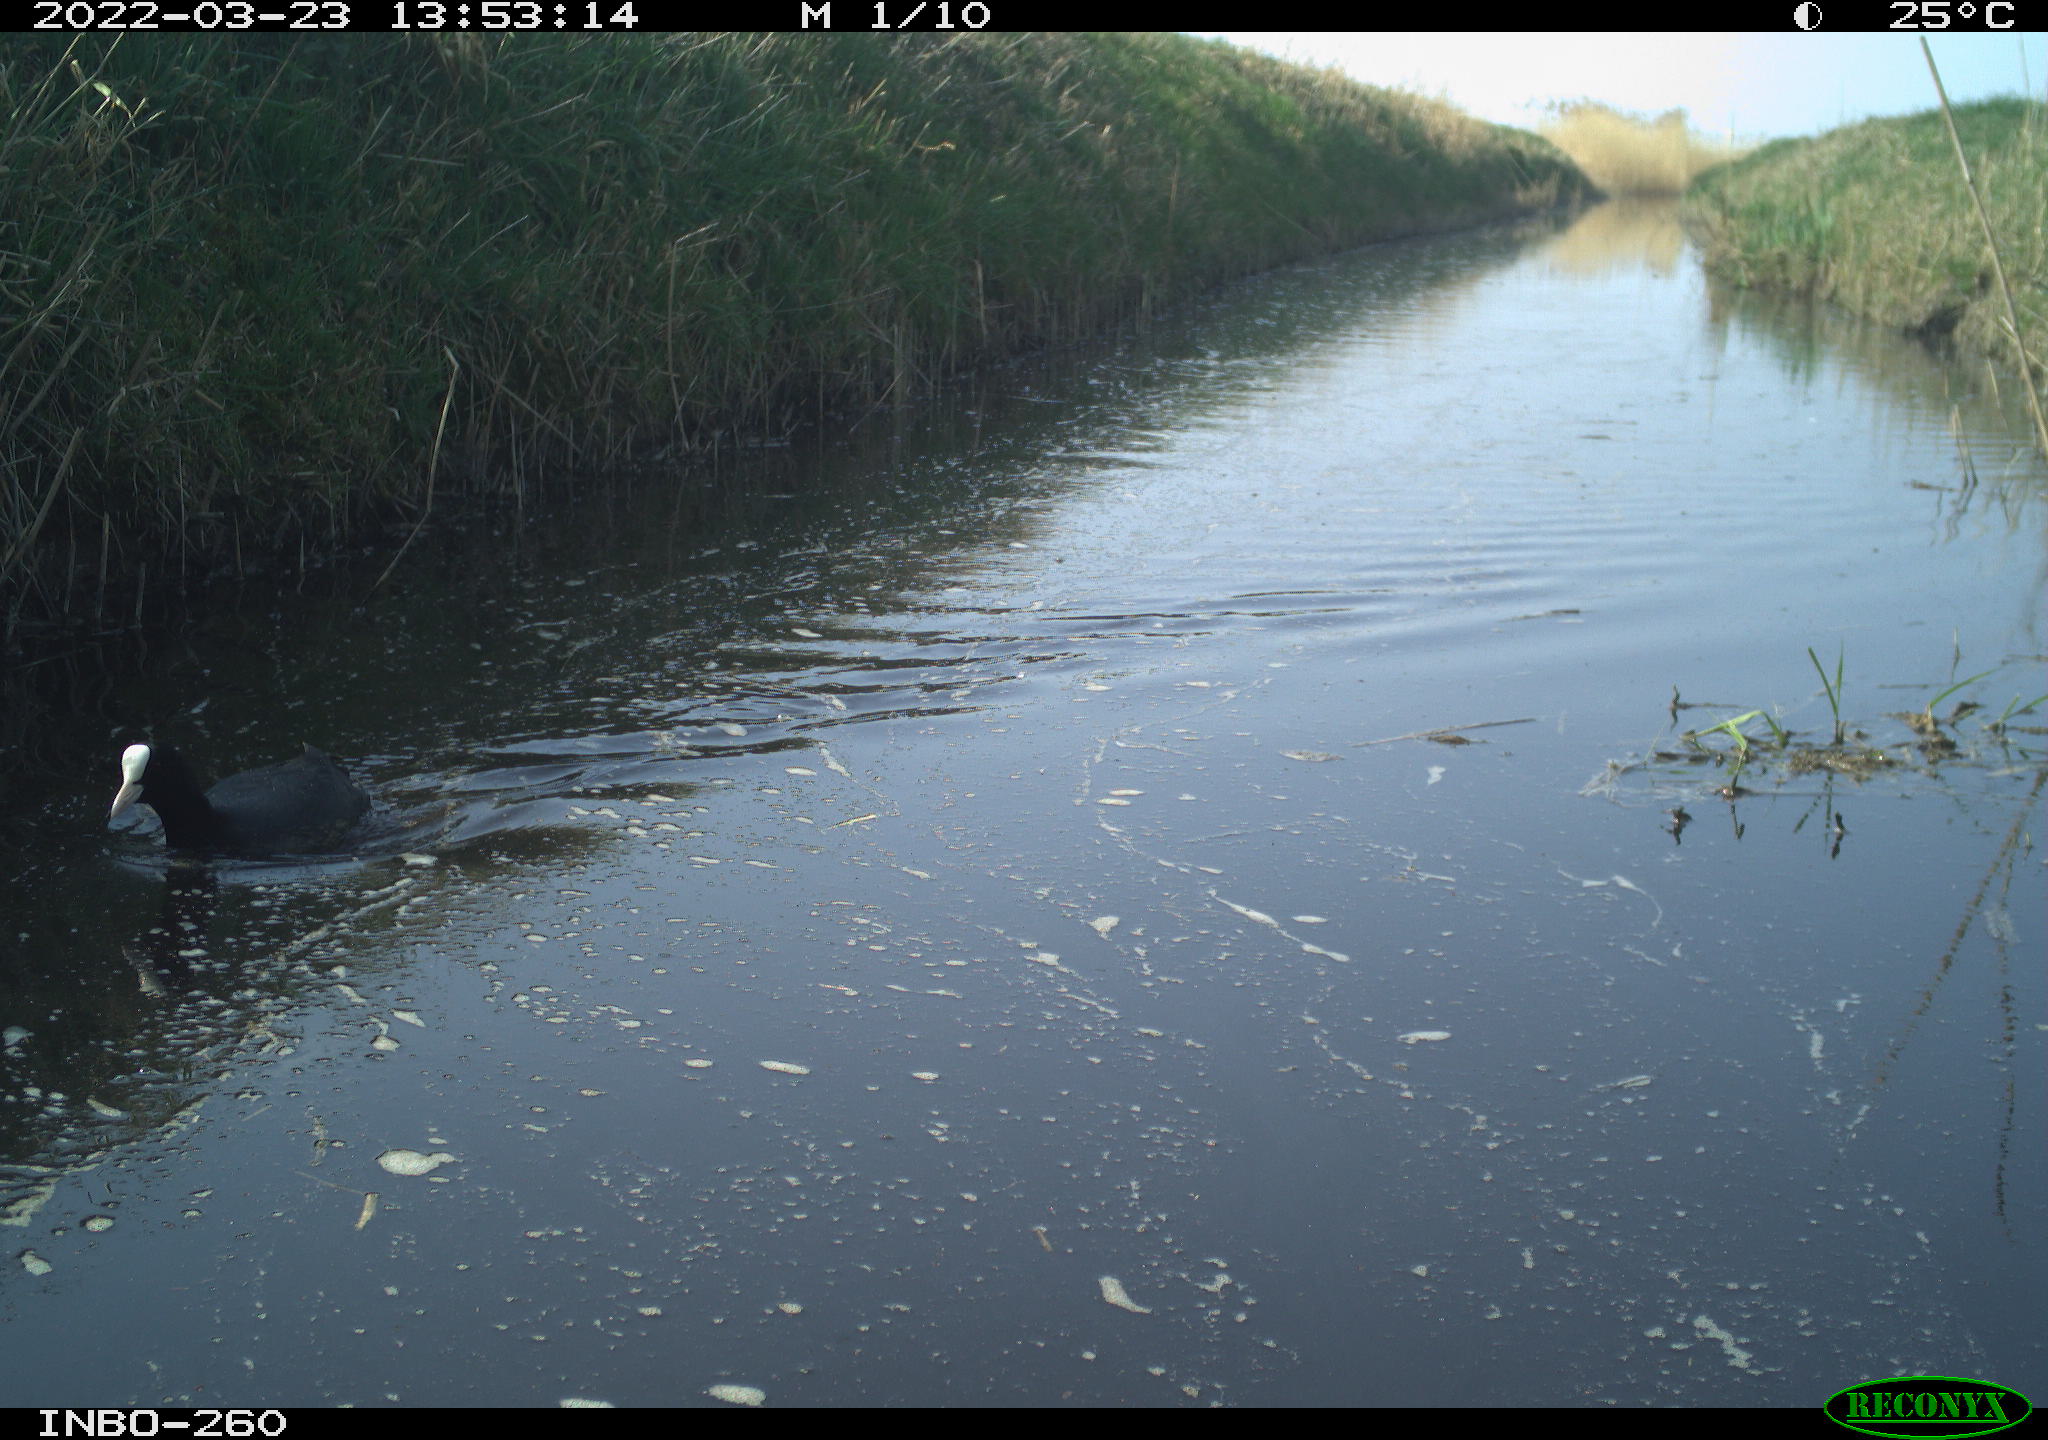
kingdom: Animalia
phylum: Chordata
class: Aves
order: Gruiformes
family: Rallidae
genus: Fulica
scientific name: Fulica atra
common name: Eurasian coot
